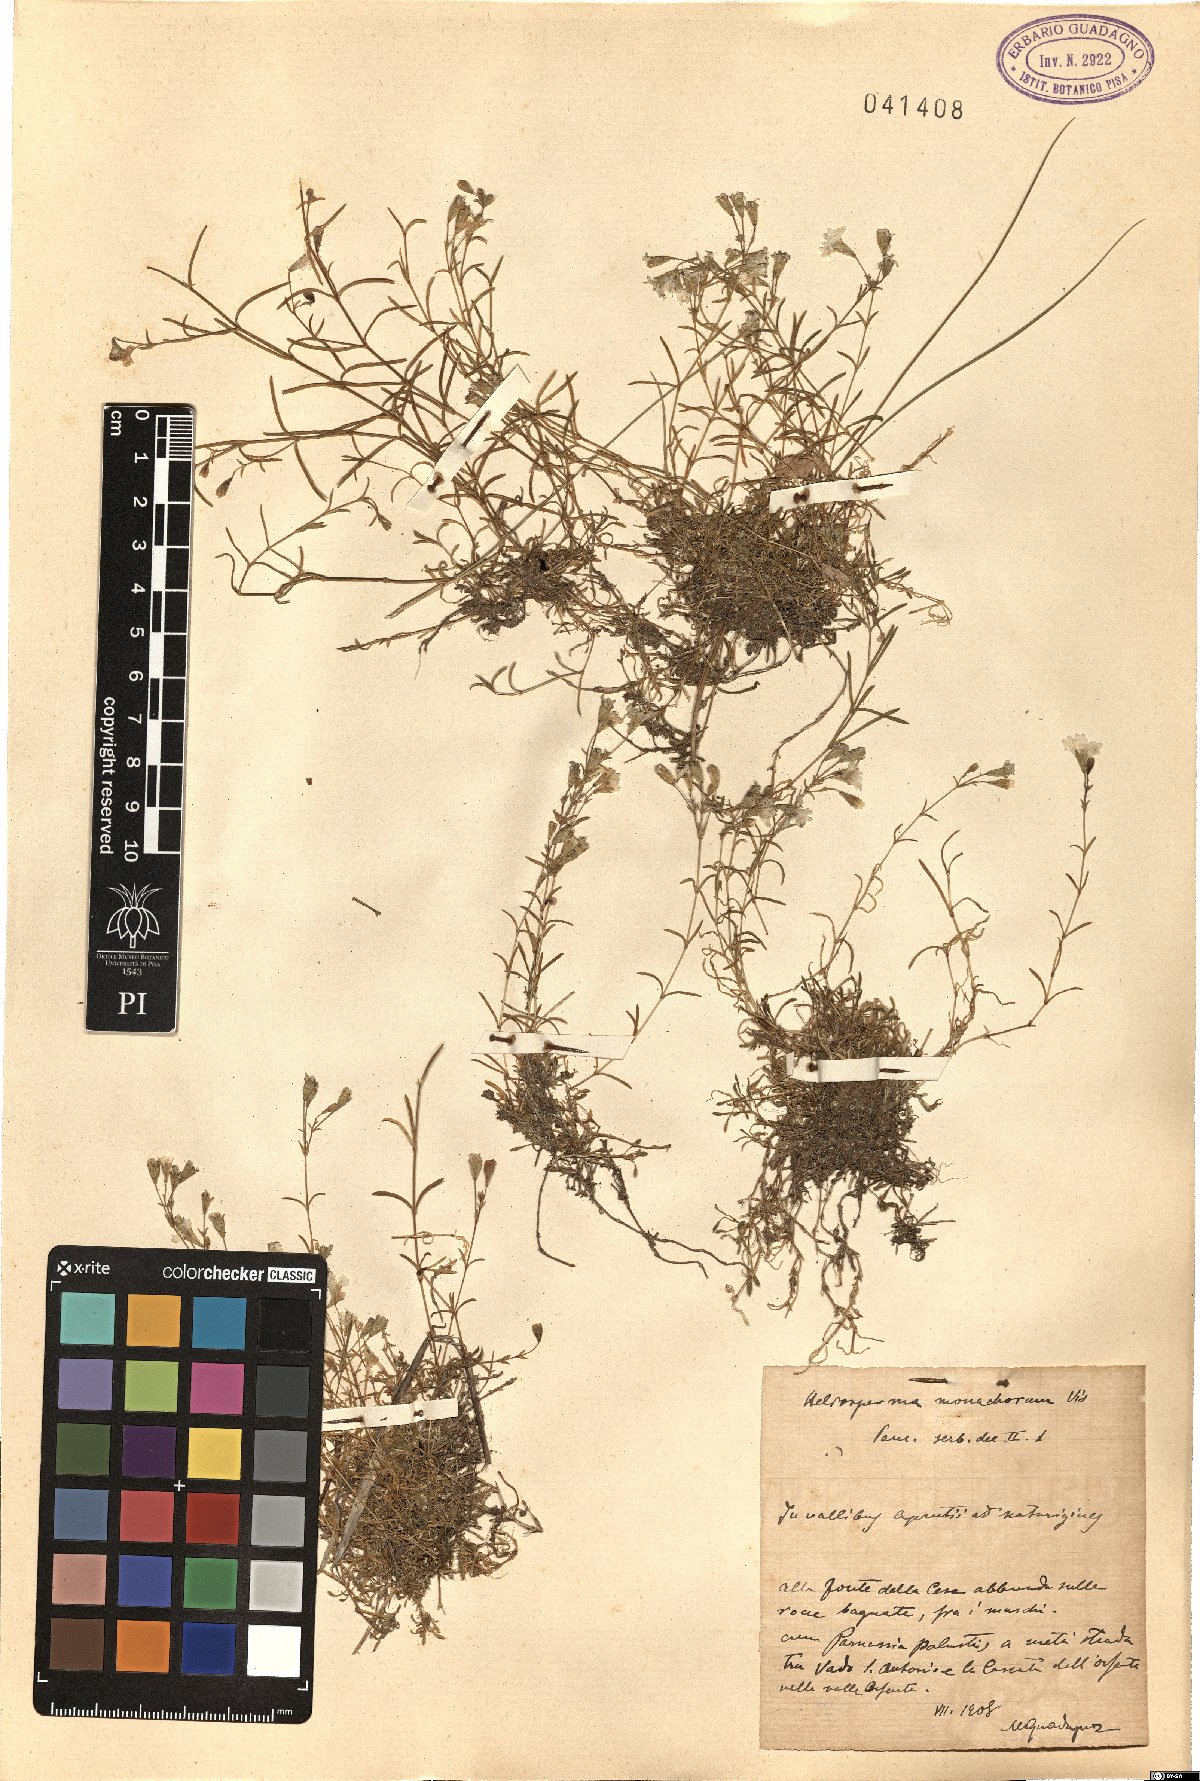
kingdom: Plantae
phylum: Tracheophyta
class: Magnoliopsida
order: Caryophyllales
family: Caryophyllaceae
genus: Heliosperma
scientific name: Heliosperma pusillum
